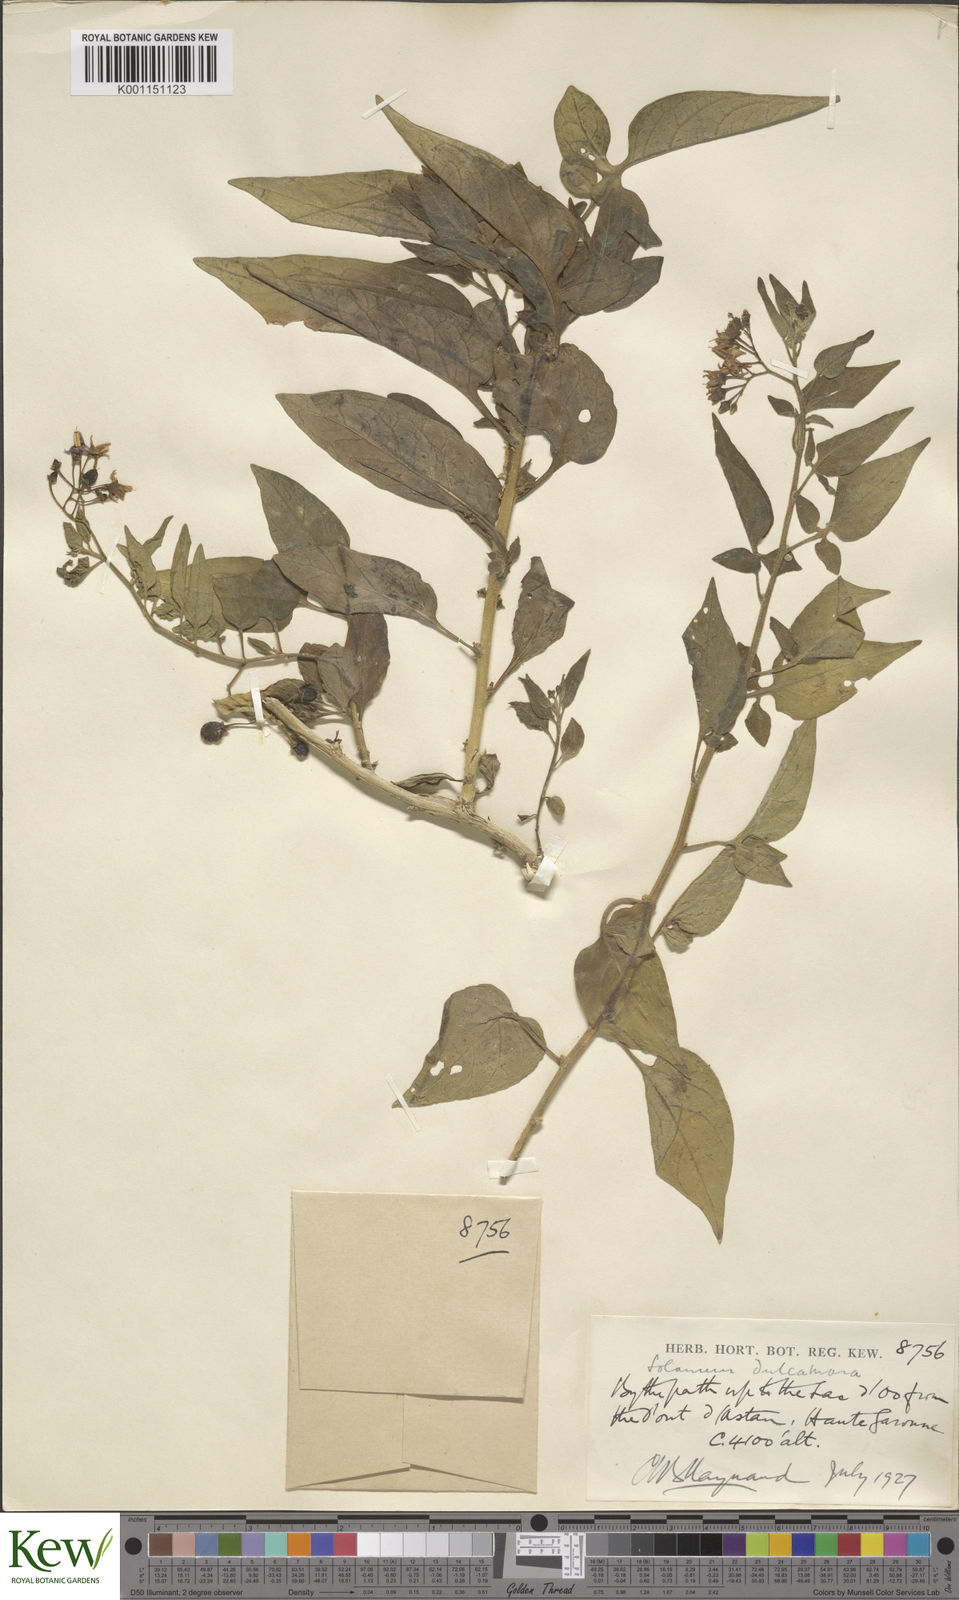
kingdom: Plantae
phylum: Tracheophyta
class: Magnoliopsida
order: Solanales
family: Solanaceae
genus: Solanum
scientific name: Solanum dulcamara
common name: Climbing nightshade
